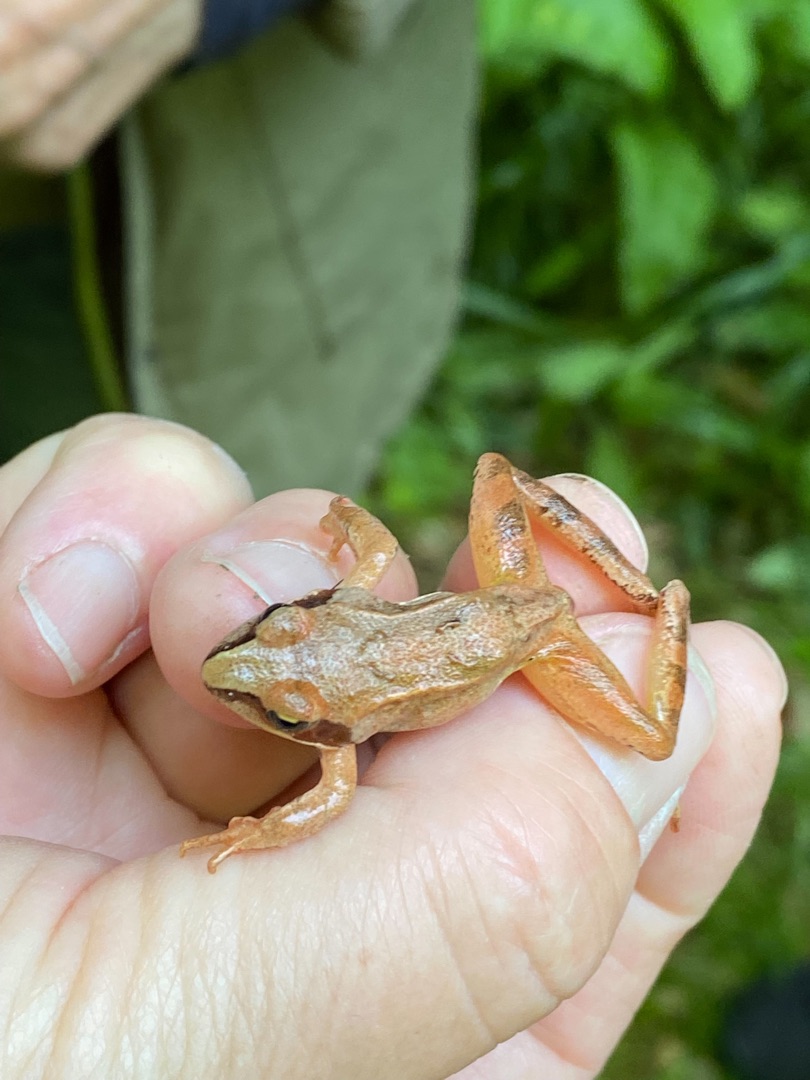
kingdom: Animalia
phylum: Chordata
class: Amphibia
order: Anura
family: Ranidae
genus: Rana
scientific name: Rana dalmatina
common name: Springfrø
